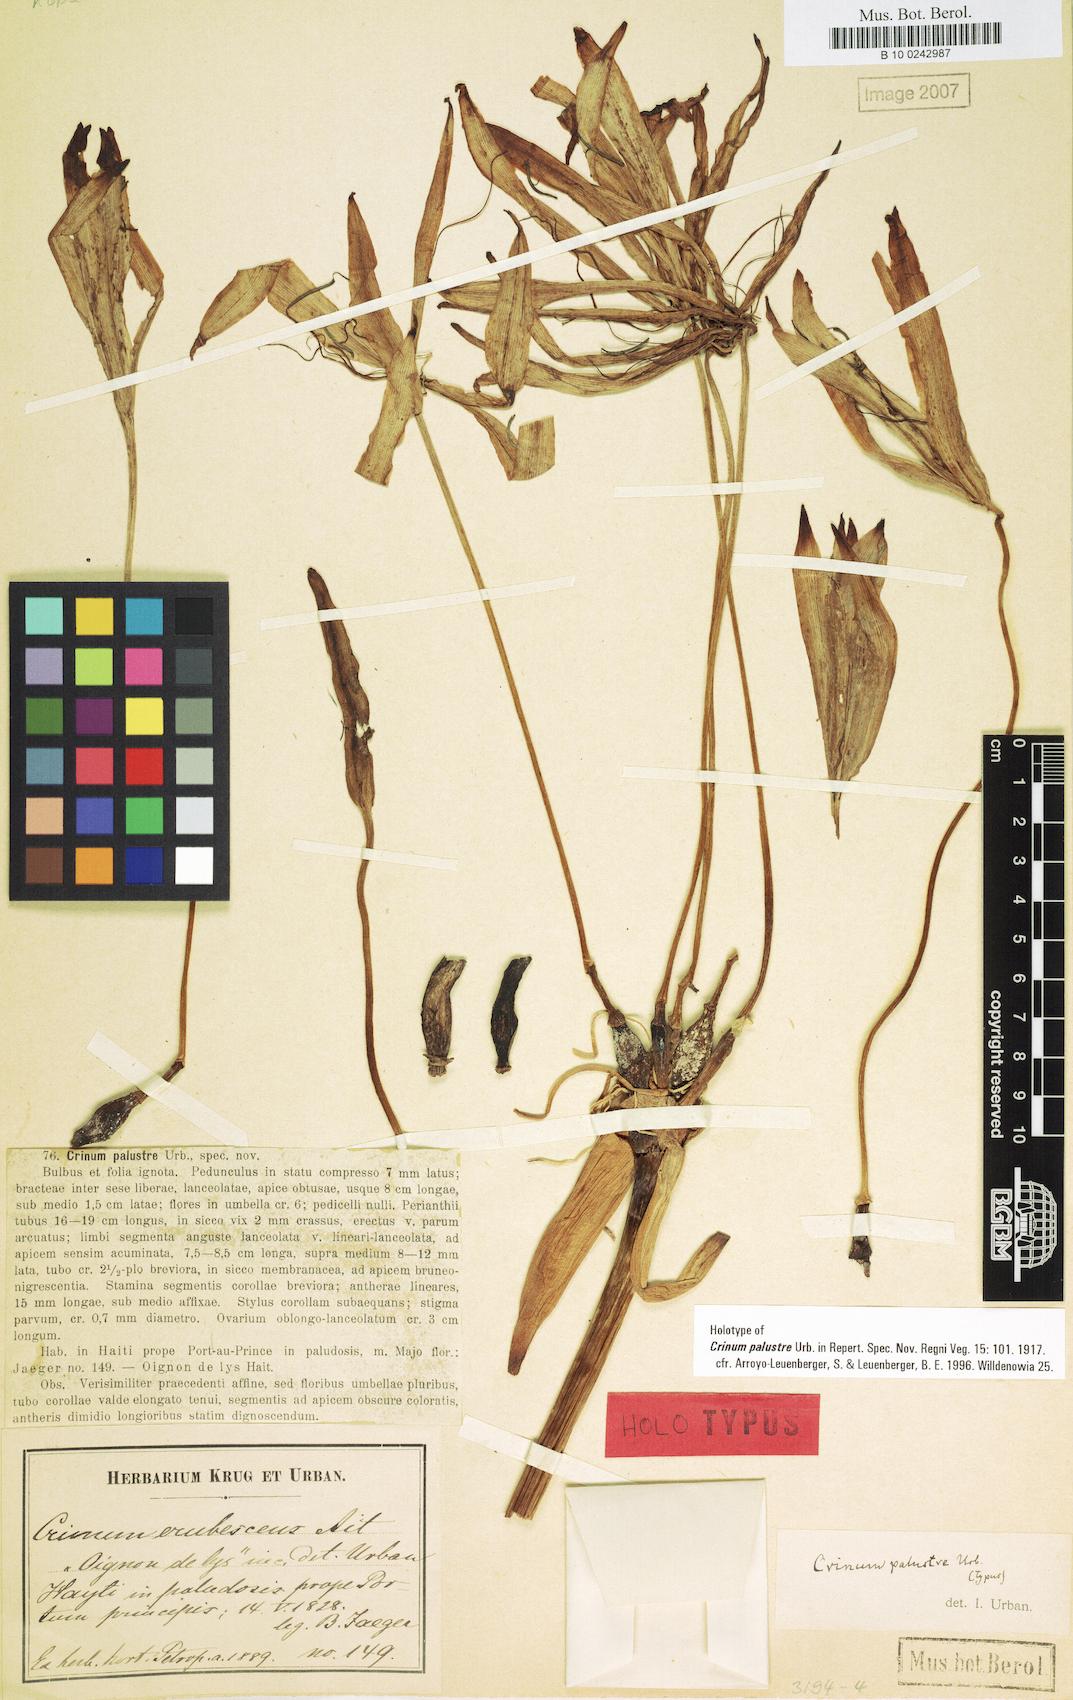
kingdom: Plantae
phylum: Tracheophyta
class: Liliopsida
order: Asparagales
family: Amaryllidaceae
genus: Crinum
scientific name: Crinum palustre
